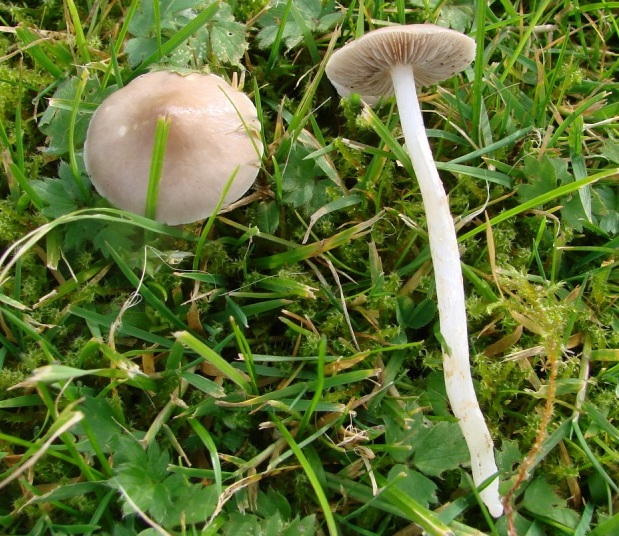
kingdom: Fungi
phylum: Basidiomycota
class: Agaricomycetes
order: Agaricales
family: Strophariaceae
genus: Stropharia
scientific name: Stropharia inuncta
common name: lillabrun bredblad
